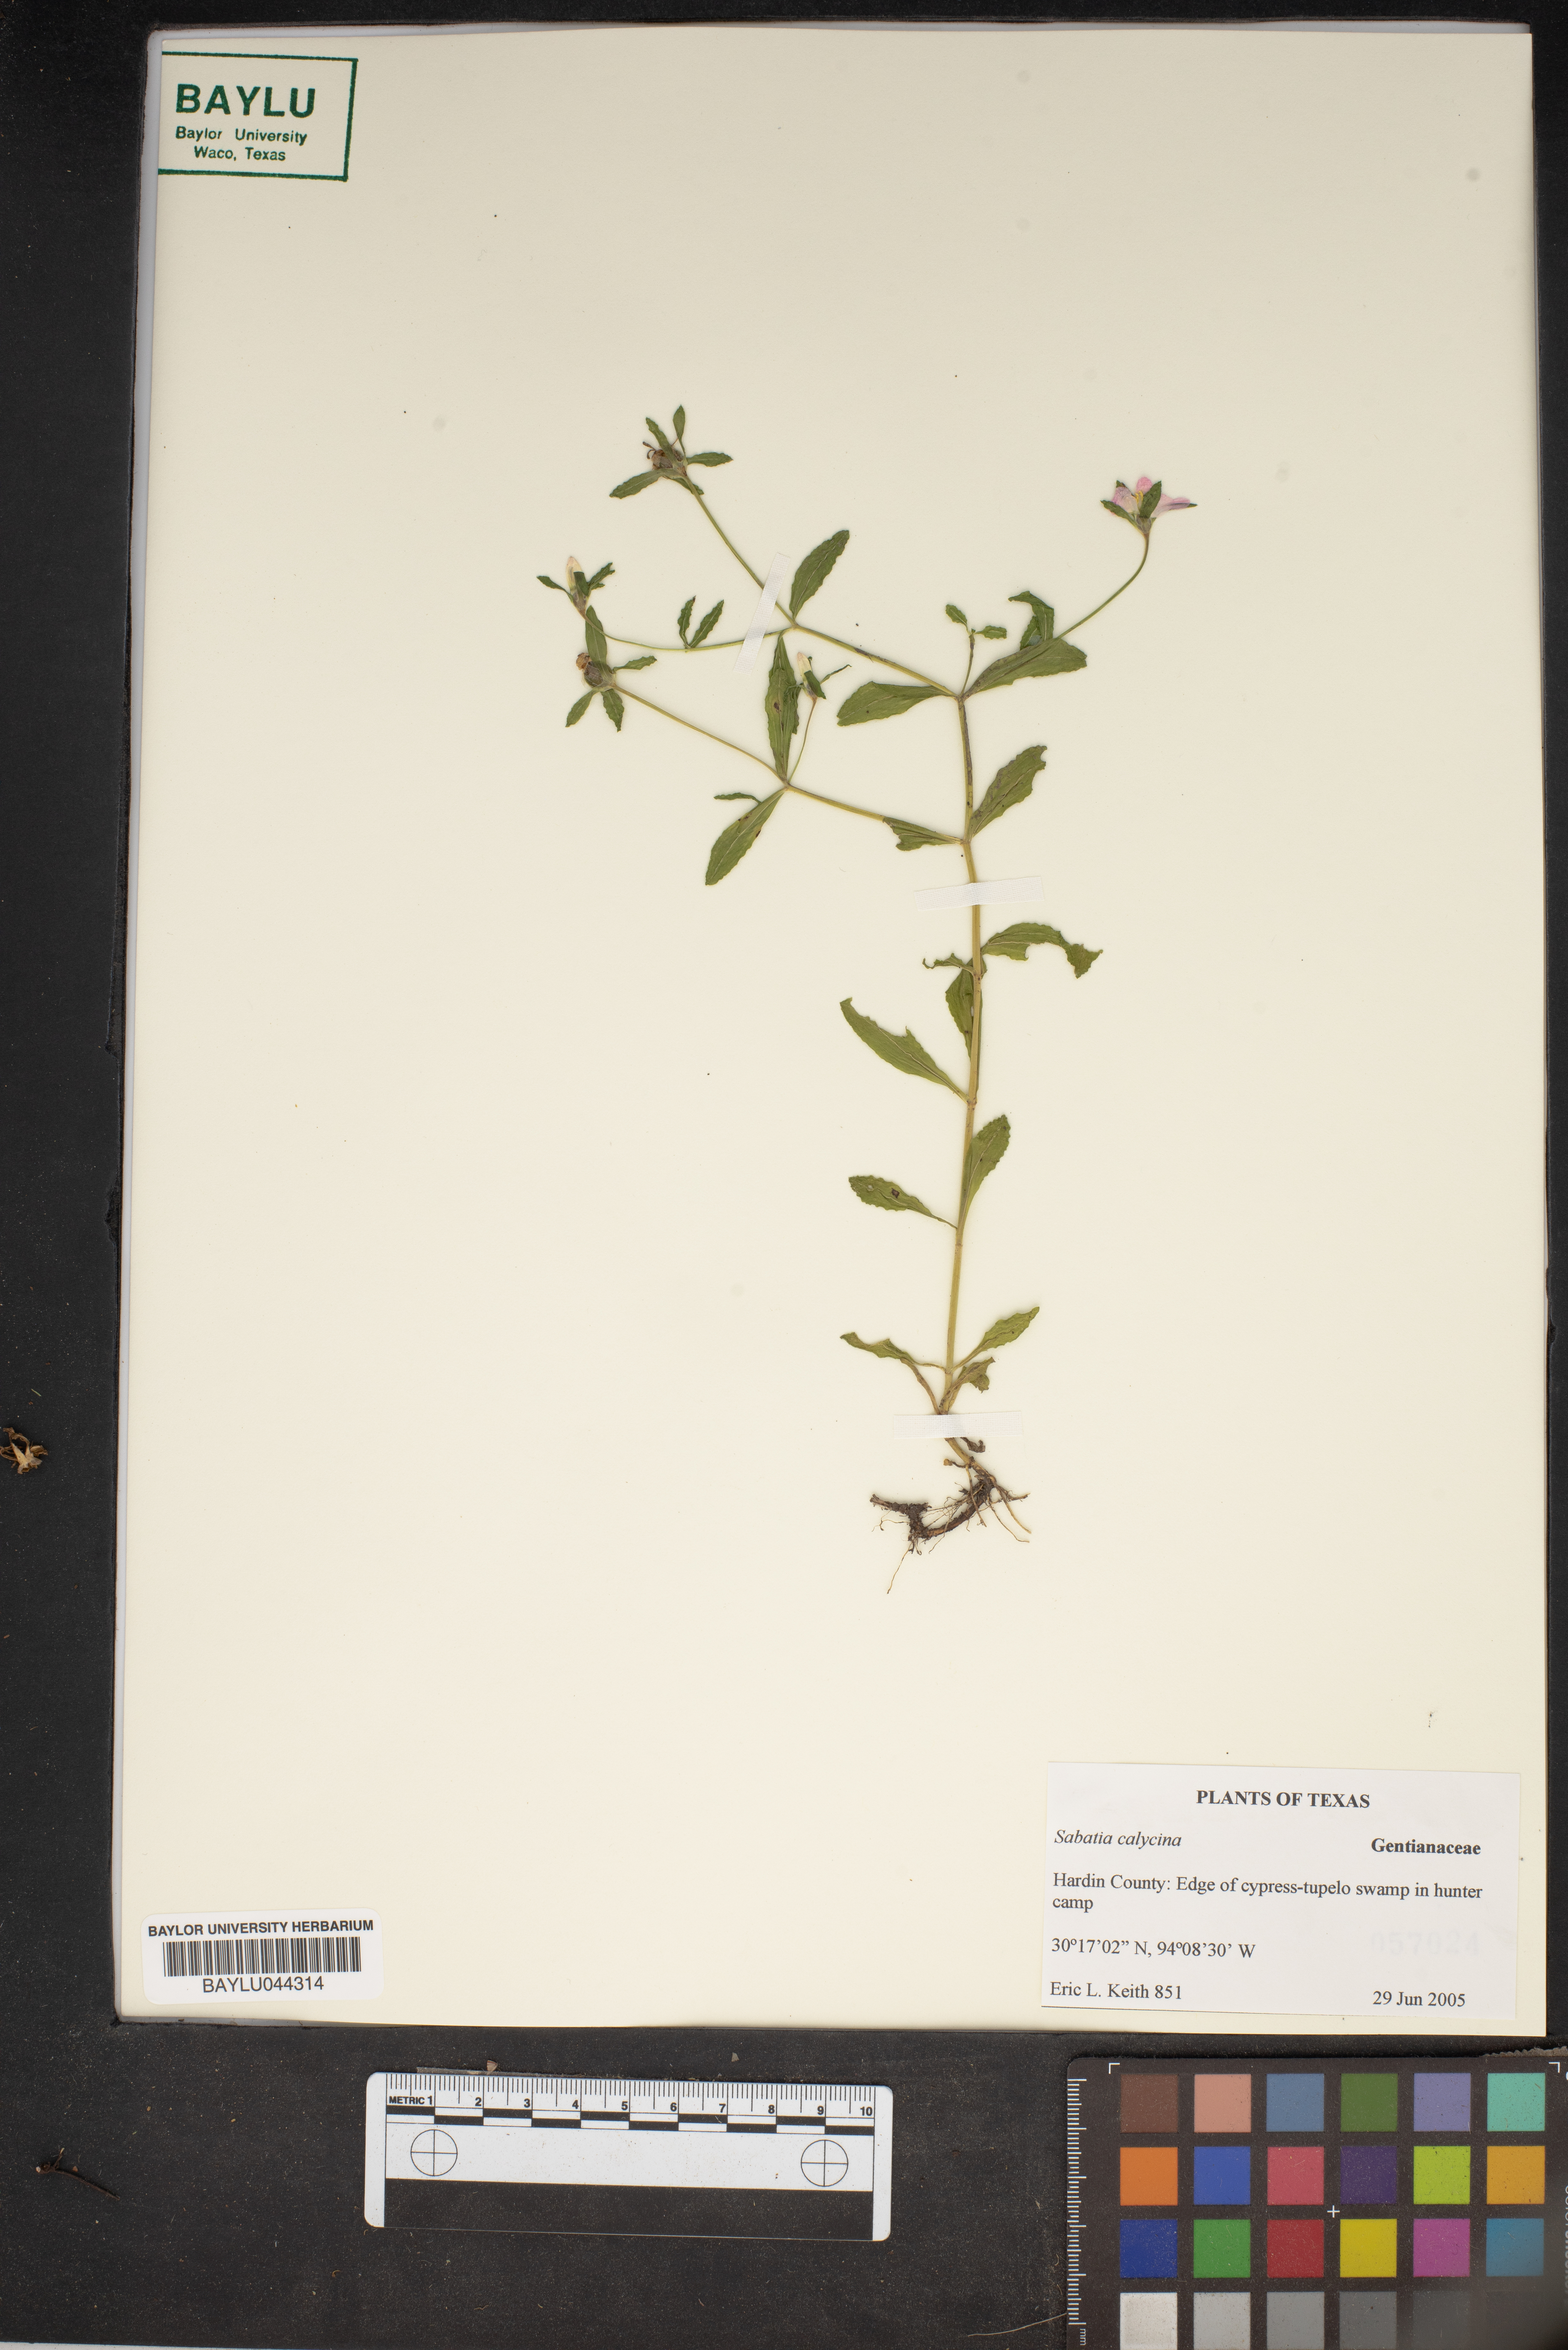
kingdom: Plantae
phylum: Tracheophyta
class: Magnoliopsida
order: Gentianales
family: Gentianaceae
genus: Sabatia
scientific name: Sabatia calycina
